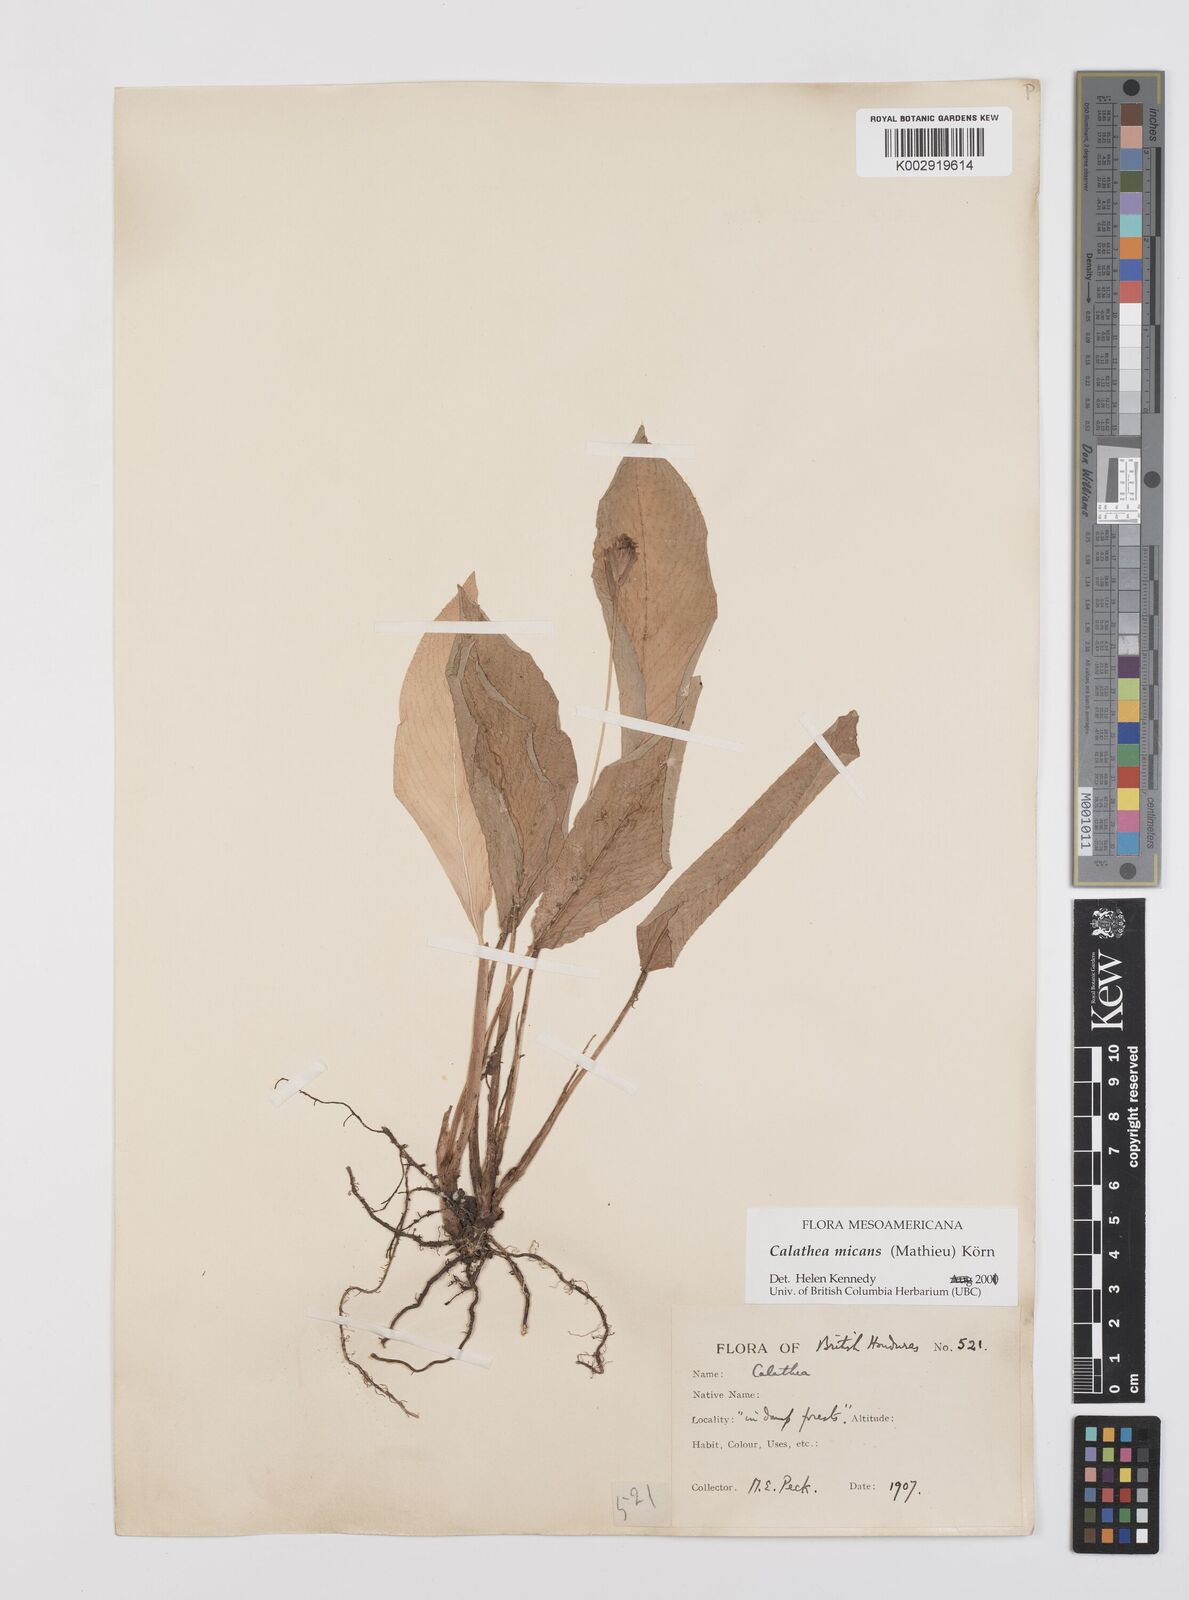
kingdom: Plantae
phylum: Tracheophyta
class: Liliopsida
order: Zingiberales
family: Marantaceae
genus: Goeppertia
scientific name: Goeppertia micans
